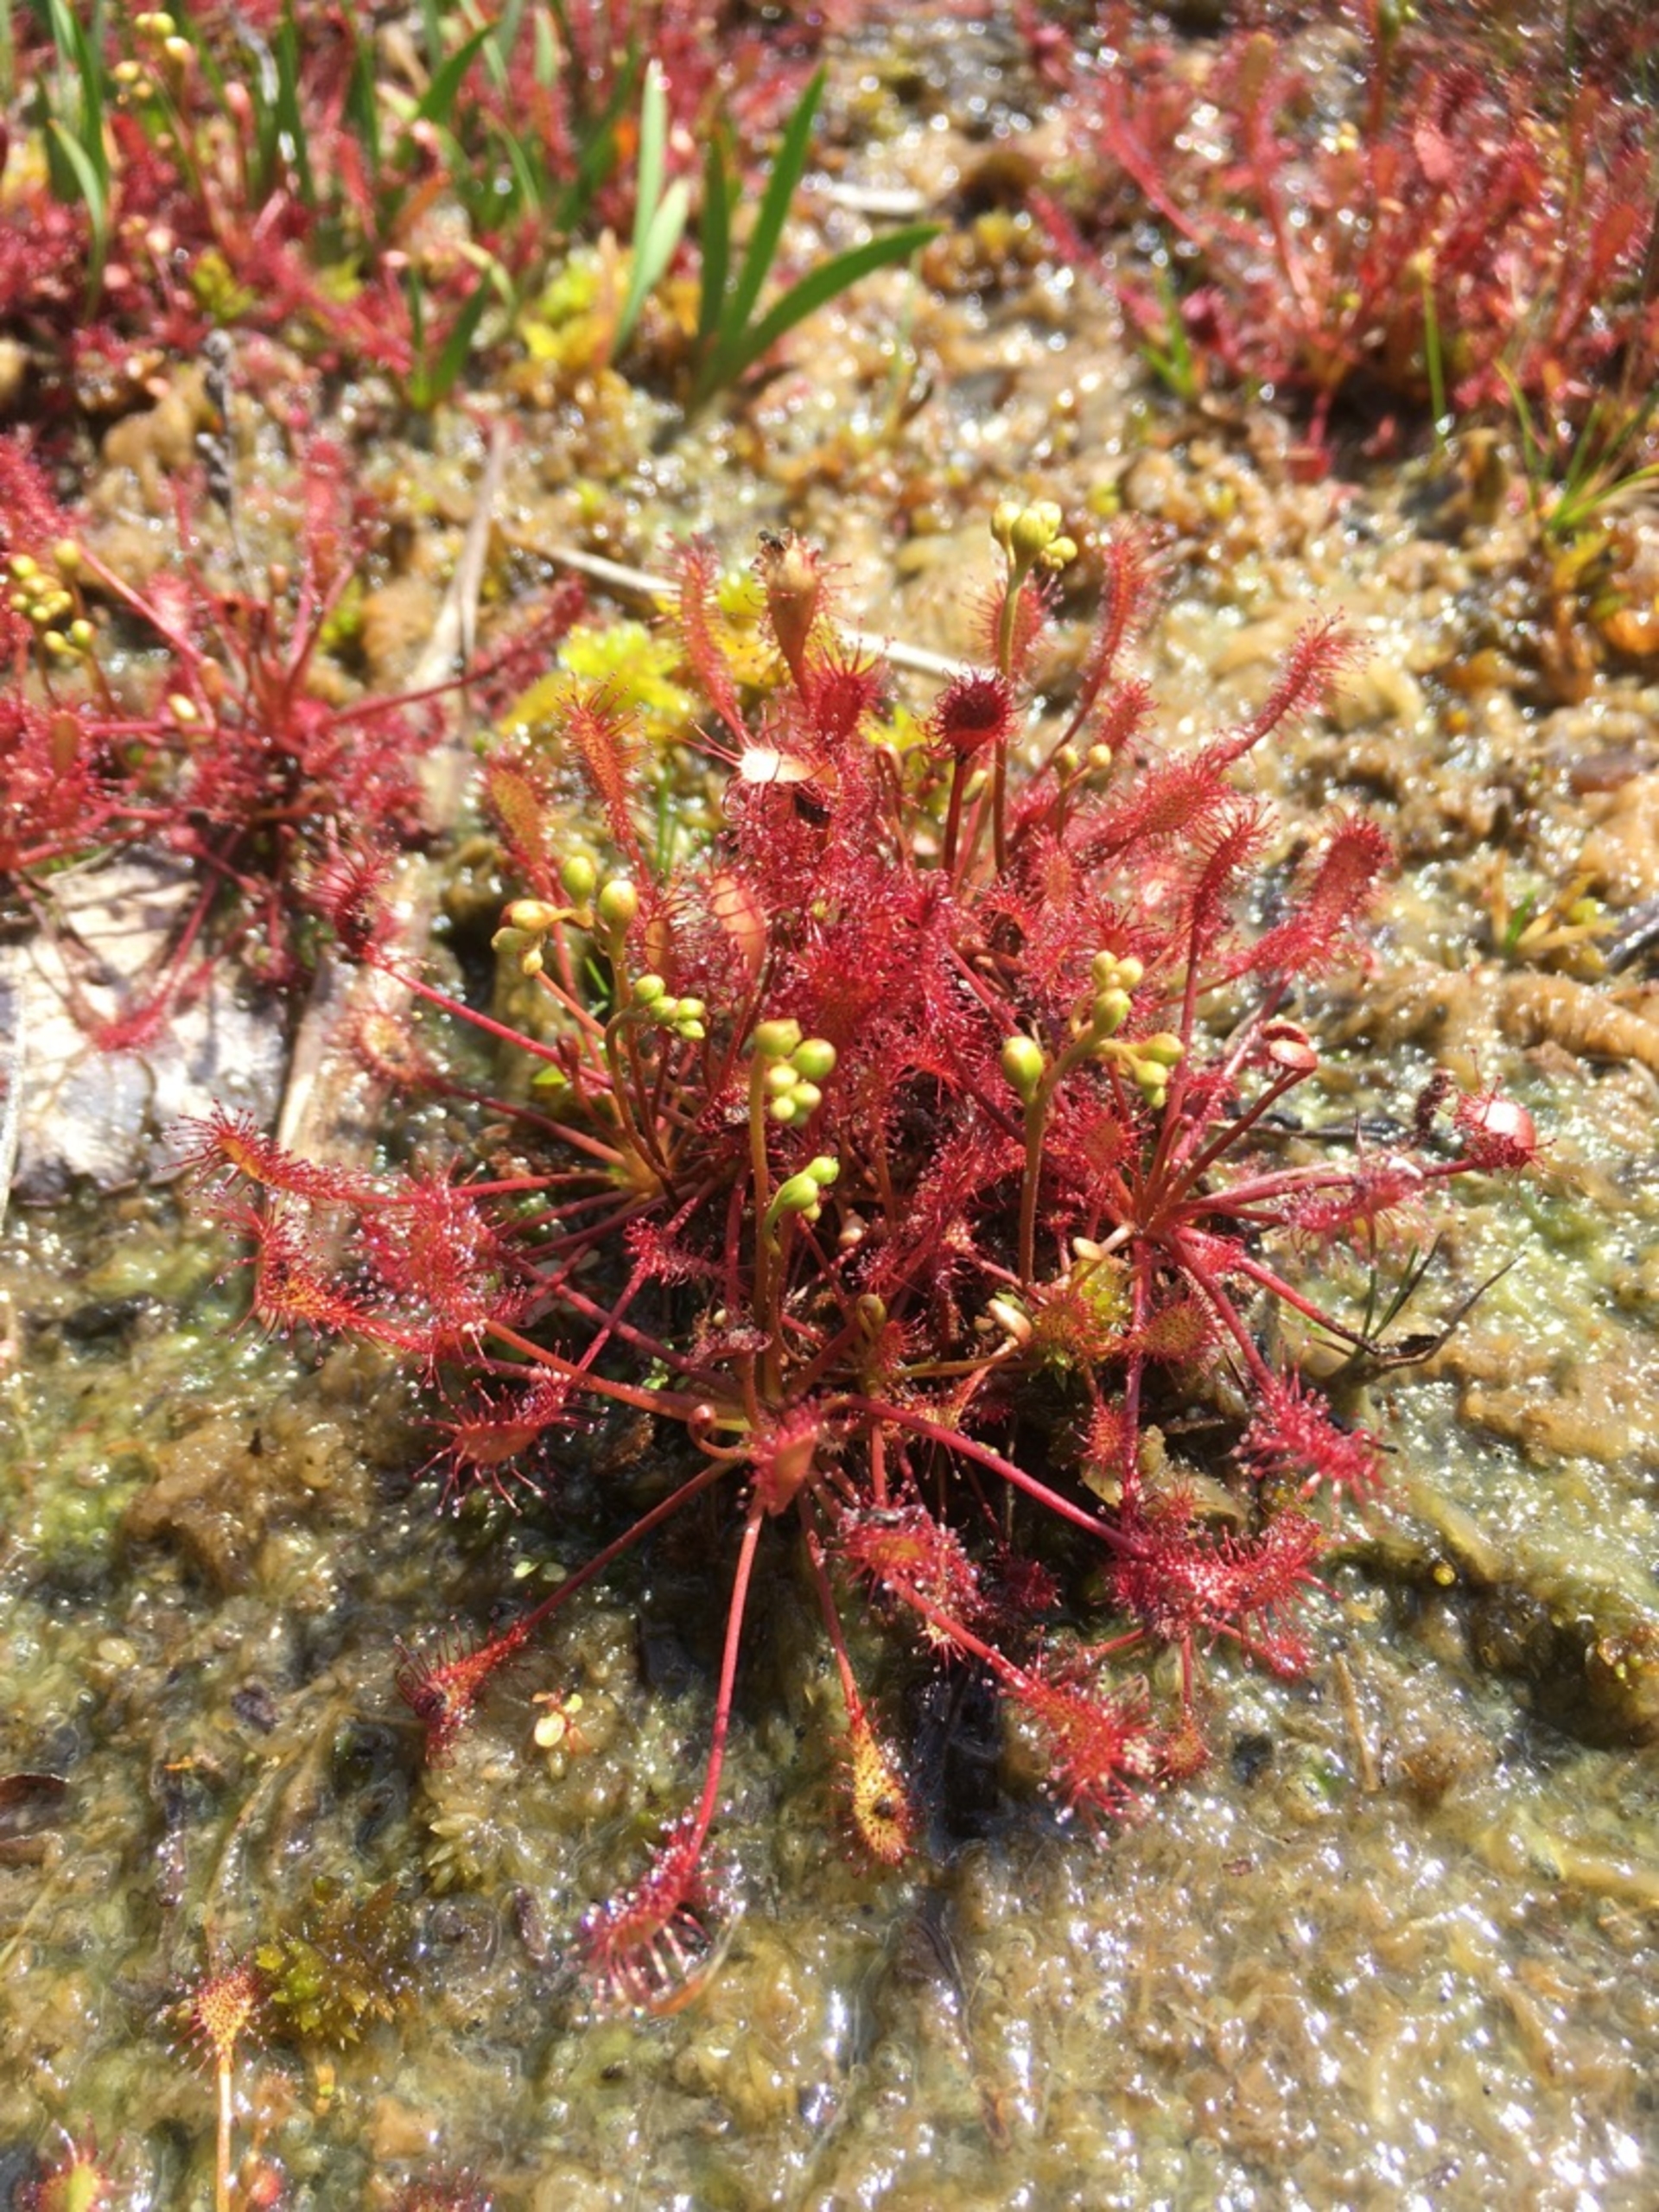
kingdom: Plantae
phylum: Tracheophyta
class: Magnoliopsida
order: Caryophyllales
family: Droseraceae
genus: Drosera
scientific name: Drosera intermedia
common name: Liden soldug
